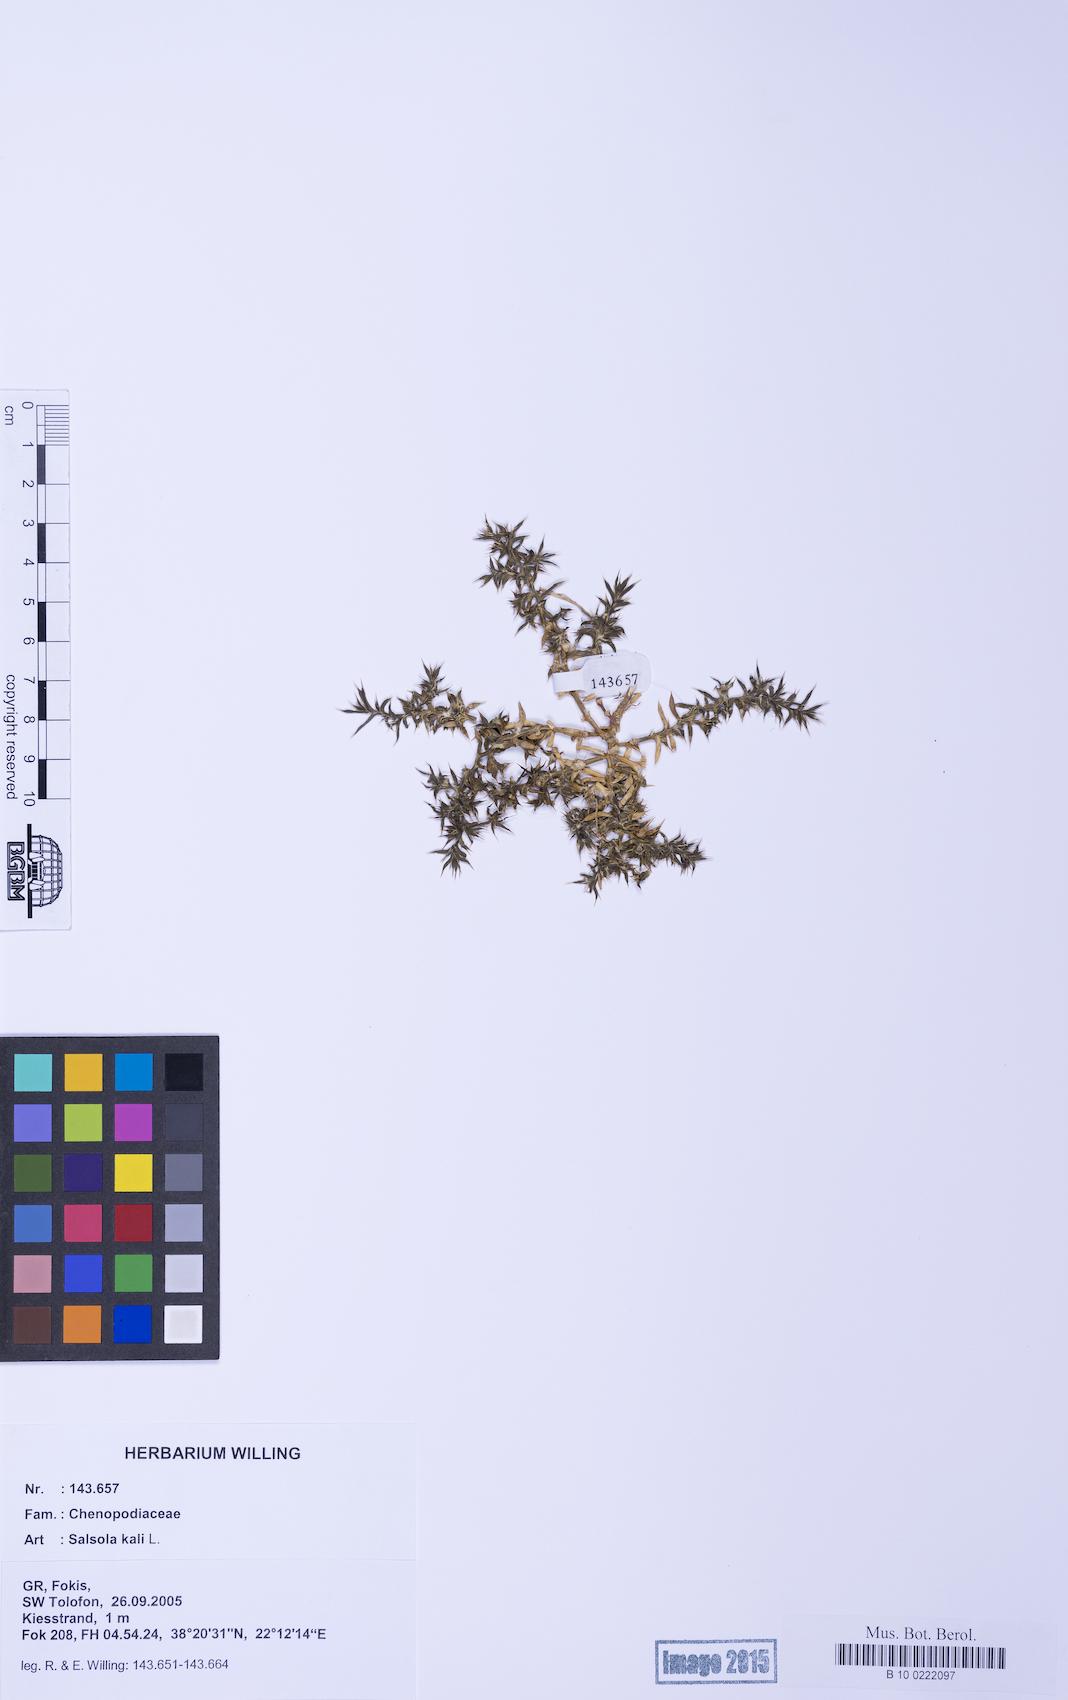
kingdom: Plantae
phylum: Tracheophyta
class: Magnoliopsida
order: Caryophyllales
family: Amaranthaceae
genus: Salsola
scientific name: Salsola kali
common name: Saltwort
